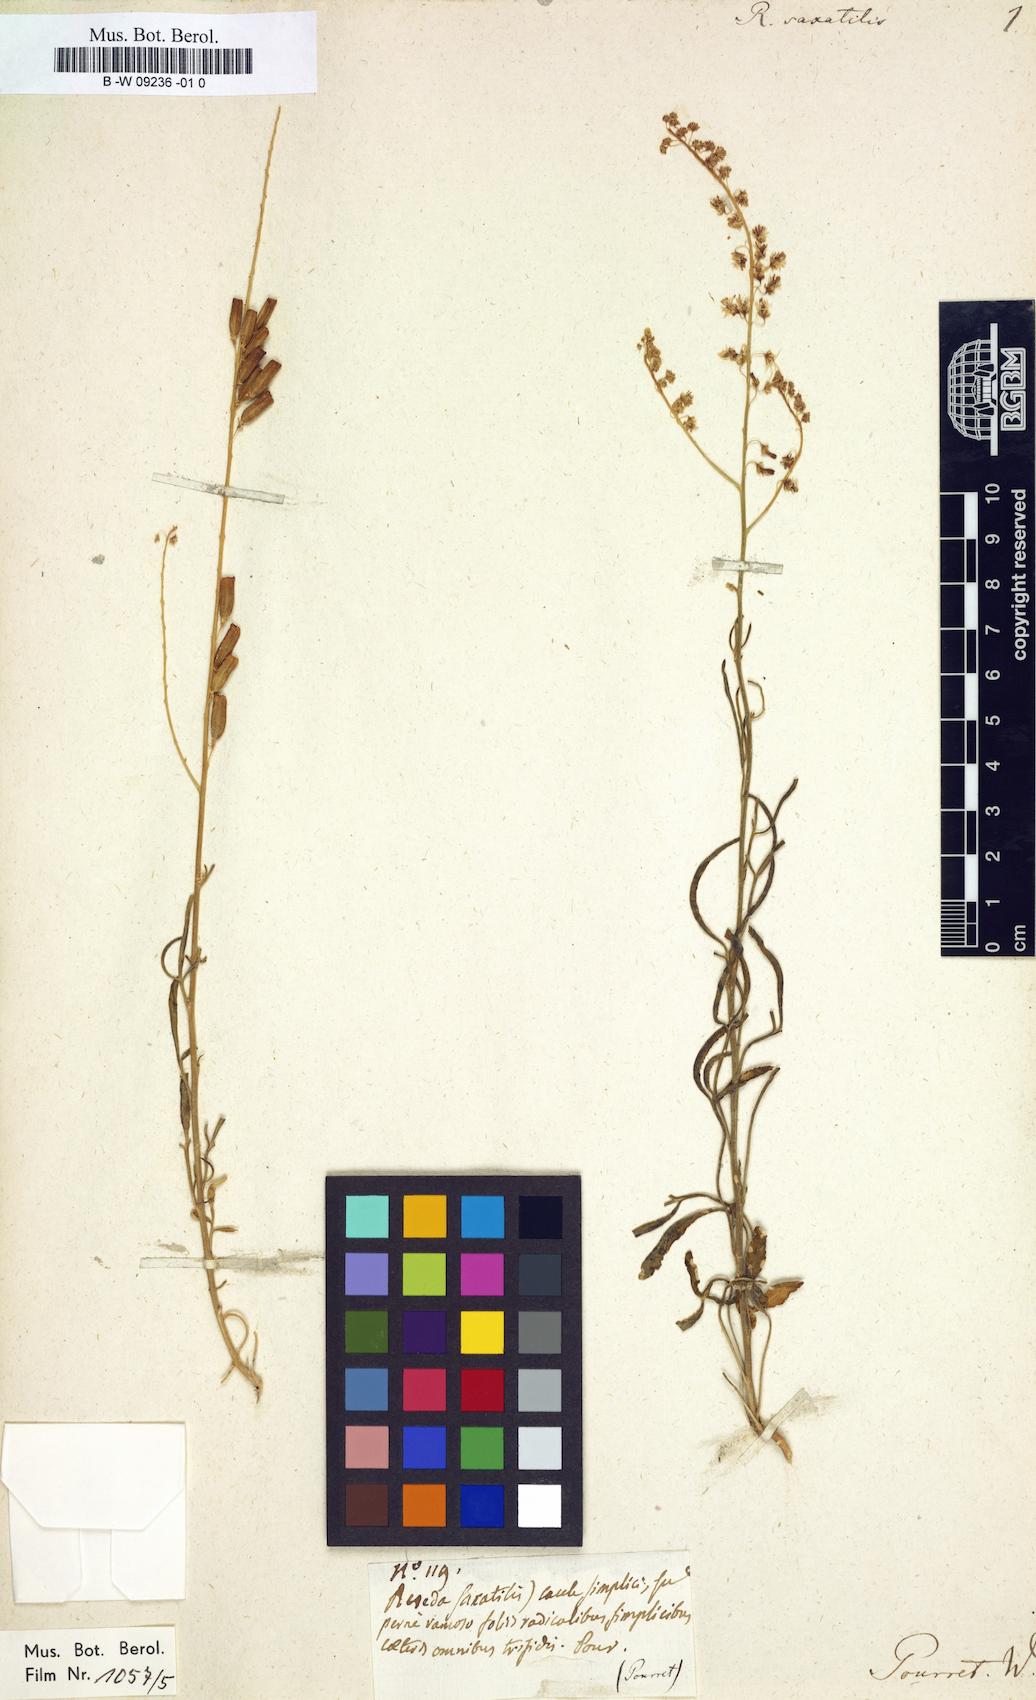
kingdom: Plantae
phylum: Tracheophyta
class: Magnoliopsida
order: Brassicales
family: Resedaceae
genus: Reseda
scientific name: Reseda stricta
